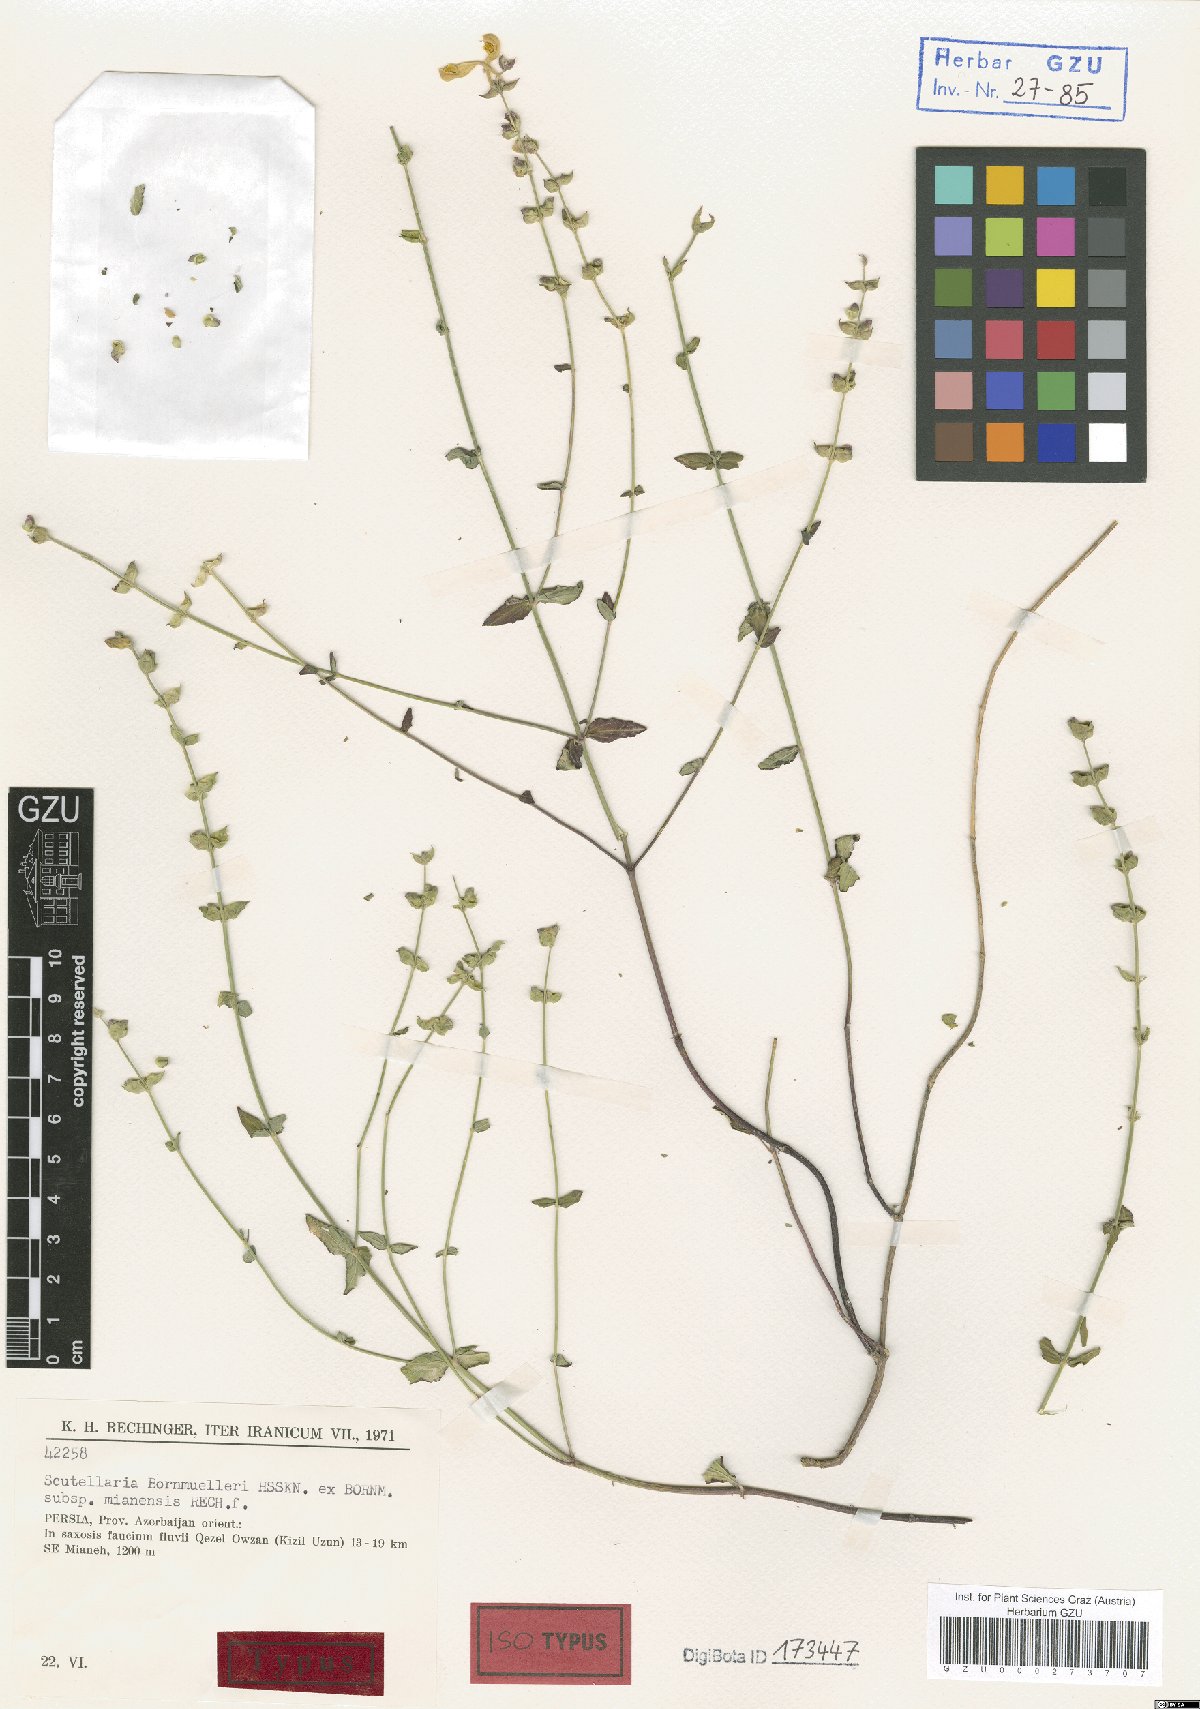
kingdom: Plantae
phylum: Tracheophyta
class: Magnoliopsida
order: Lamiales
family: Lamiaceae
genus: Scutellaria
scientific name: Scutellaria bornmuelleri
